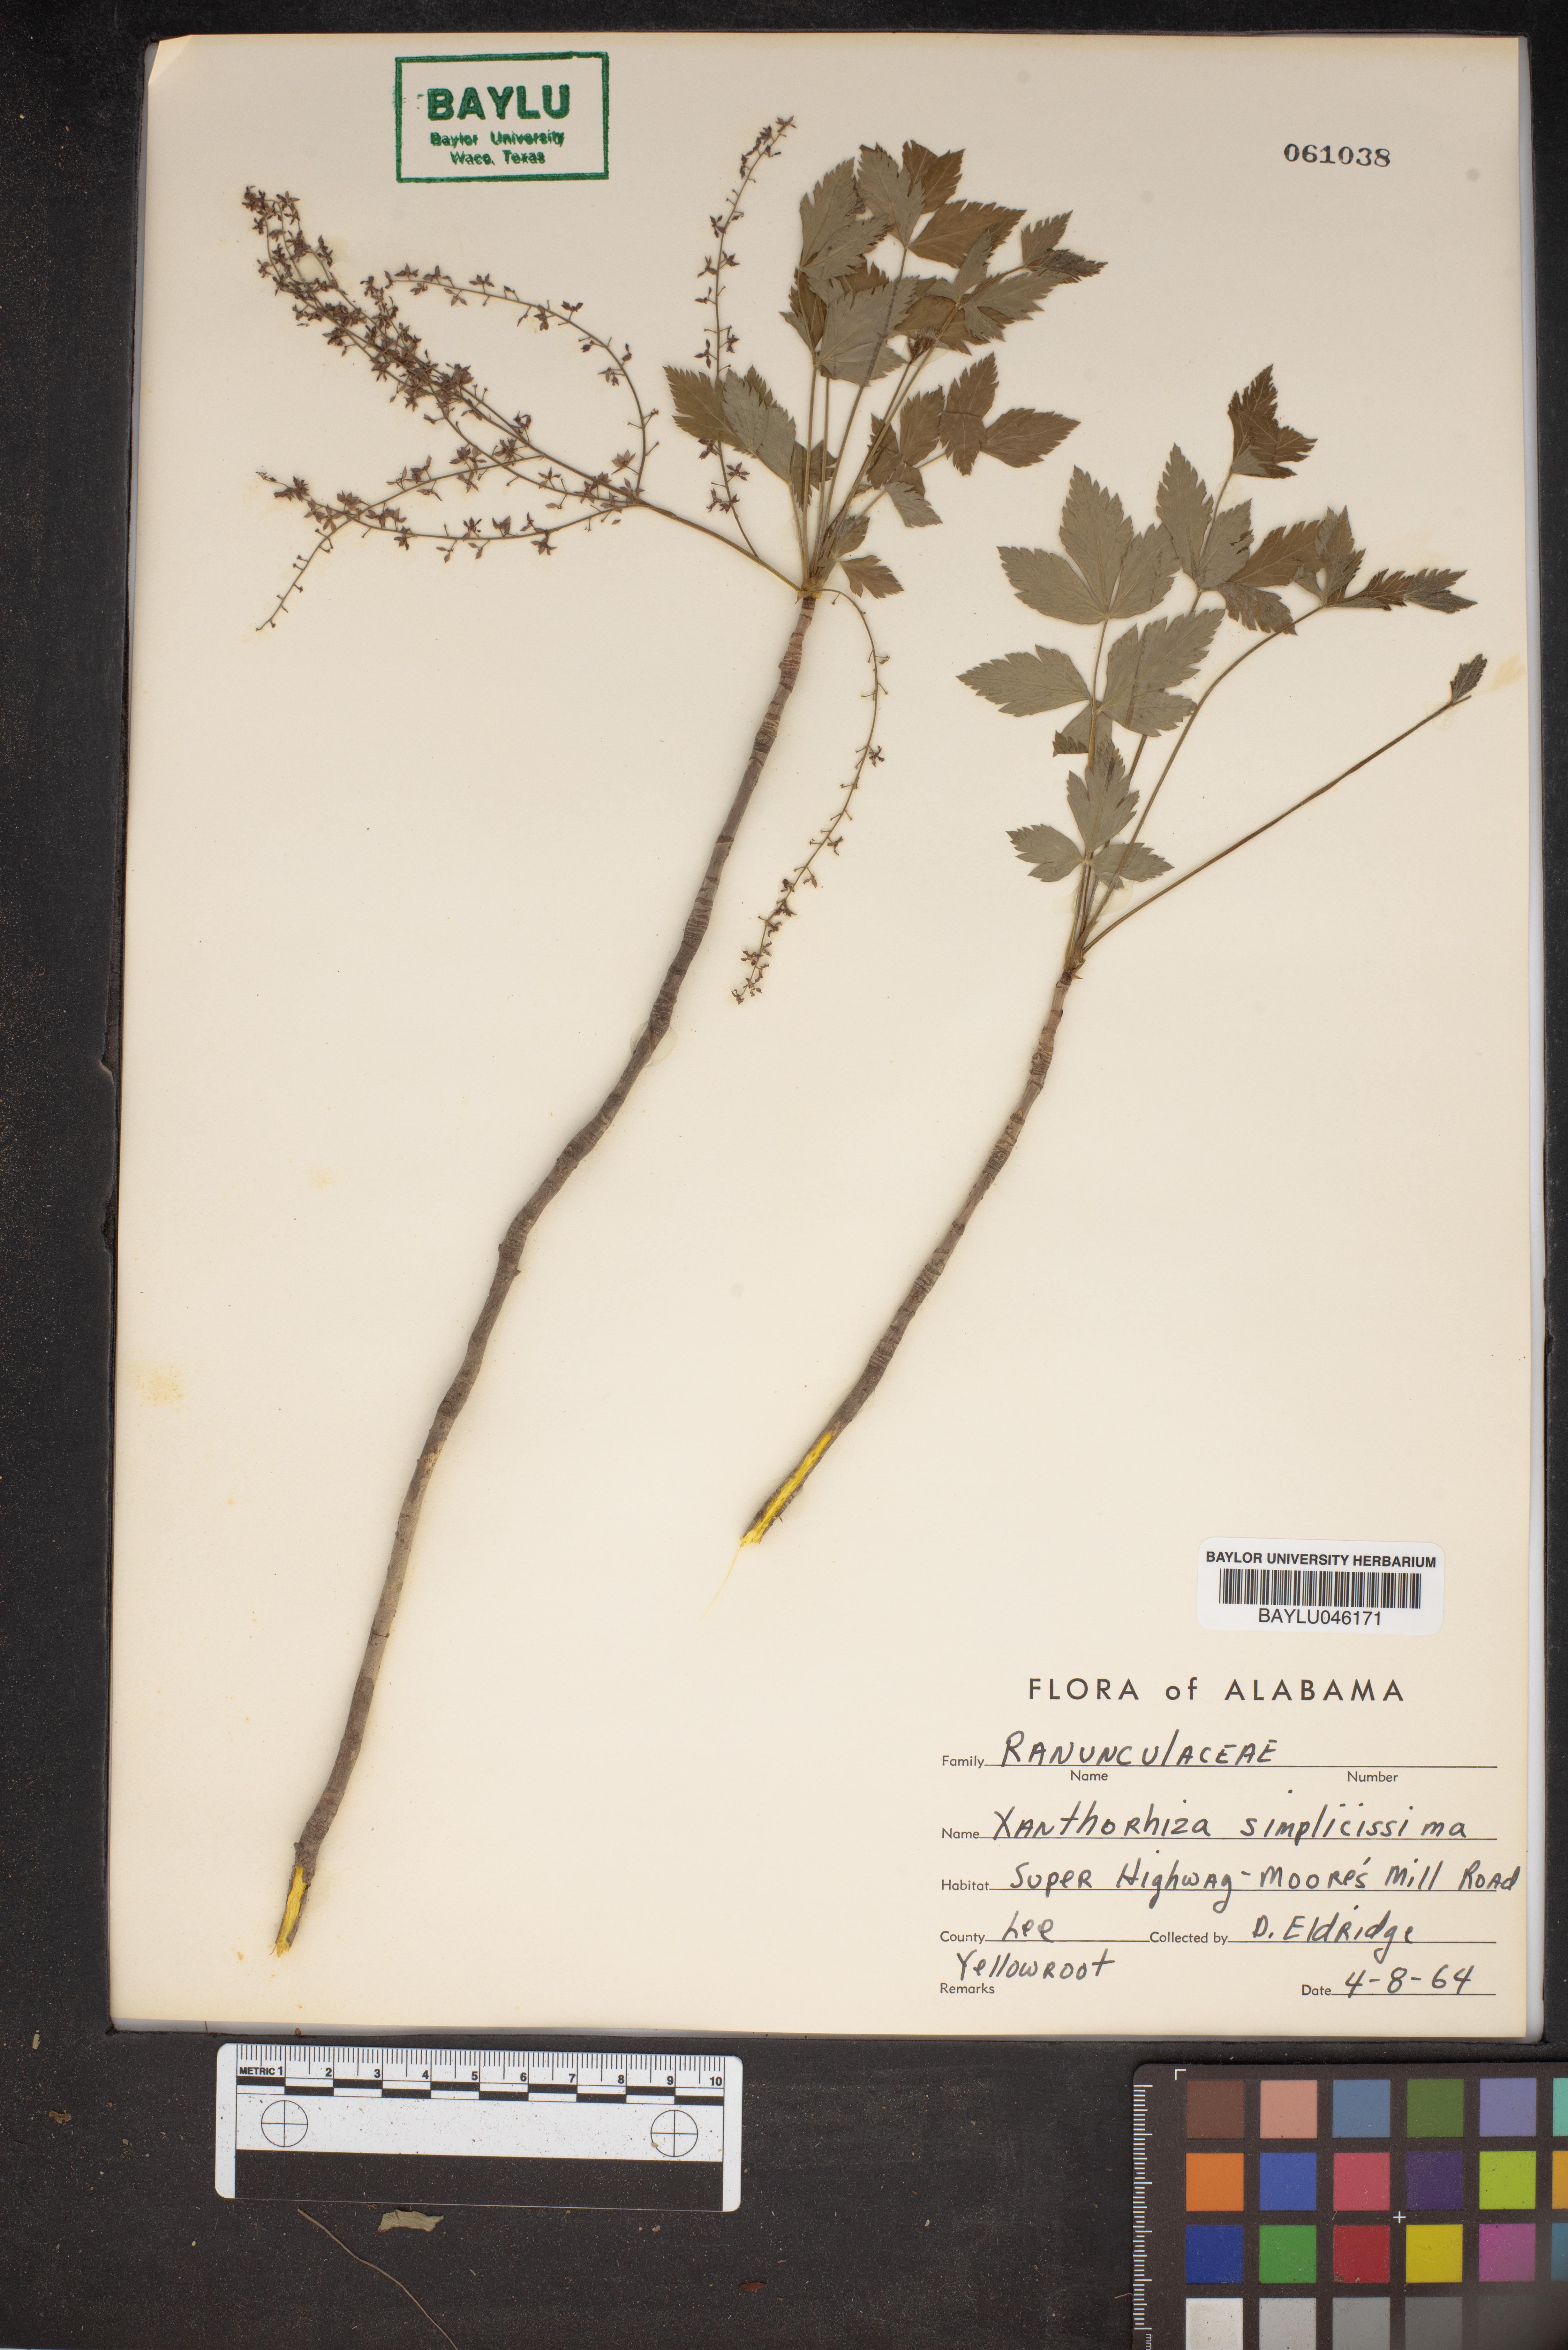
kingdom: Plantae
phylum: Tracheophyta
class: Magnoliopsida
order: Ranunculales
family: Ranunculaceae
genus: Xanthorhiza
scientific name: Xanthorhiza simplicissima
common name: Yellowroot
